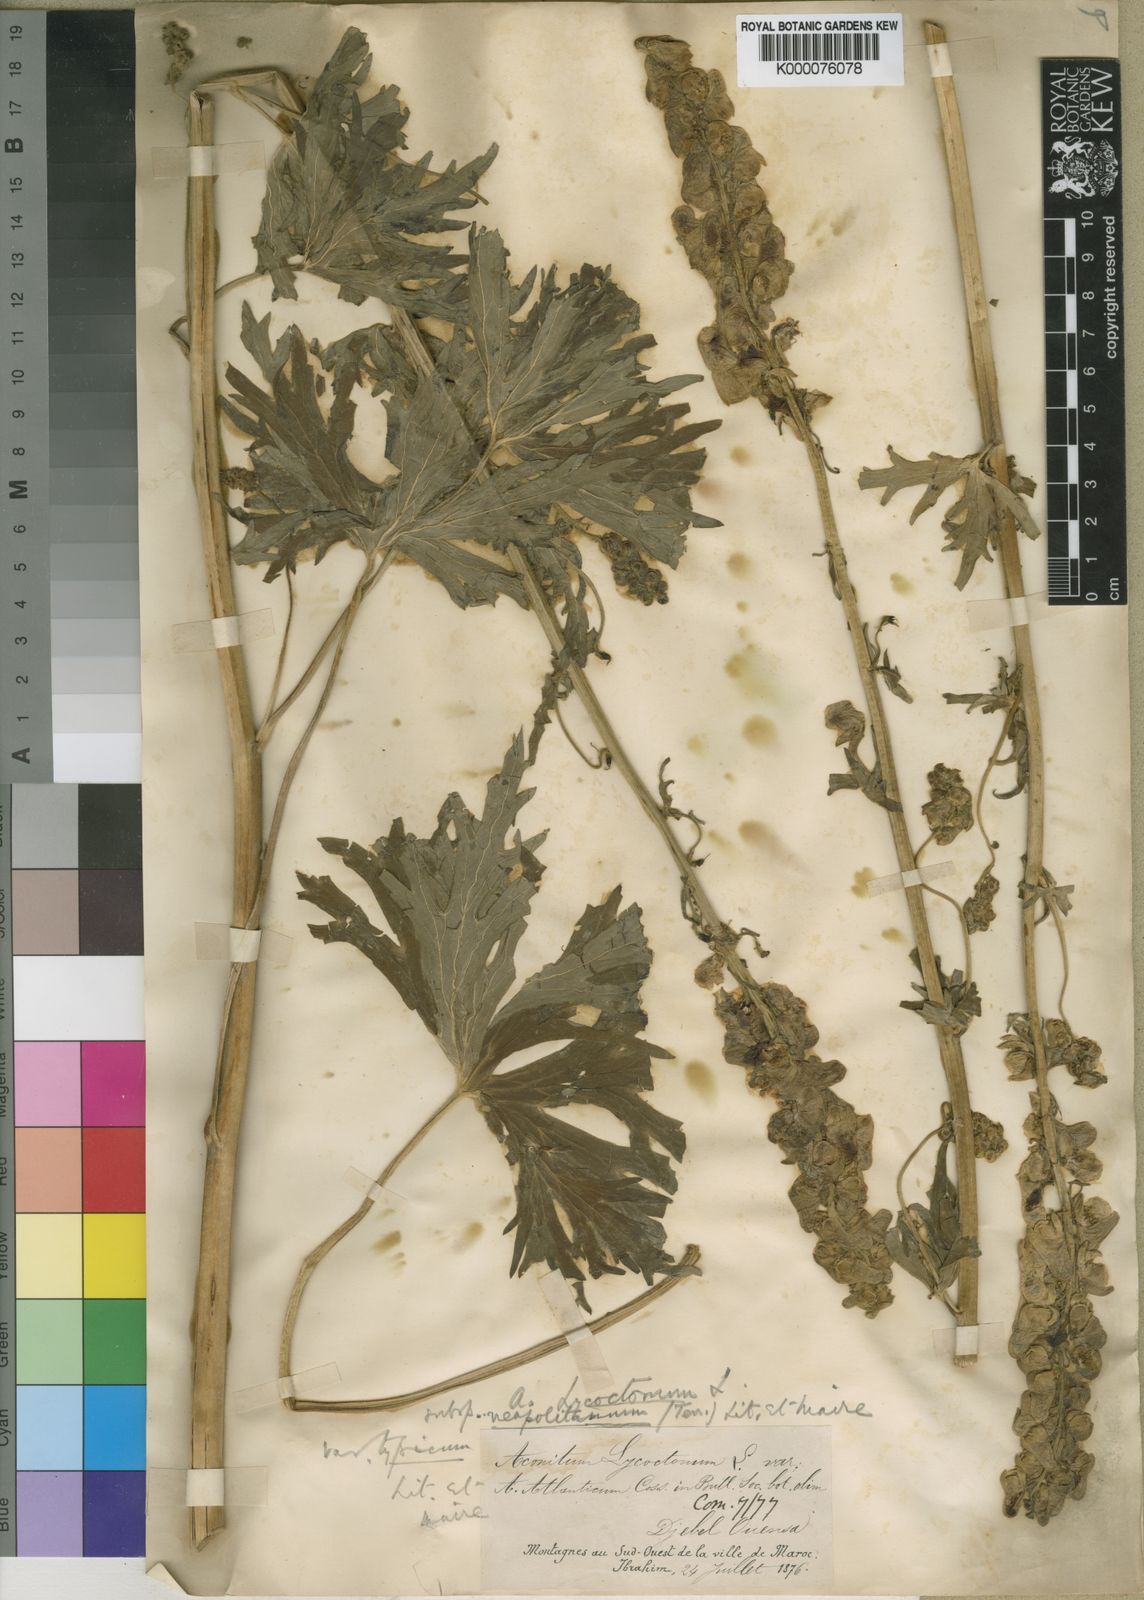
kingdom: Plantae
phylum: Tracheophyta
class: Magnoliopsida
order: Ranunculales
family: Ranunculaceae
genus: Aconitum
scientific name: Aconitum lycoctonum
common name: Wolf's-bane
